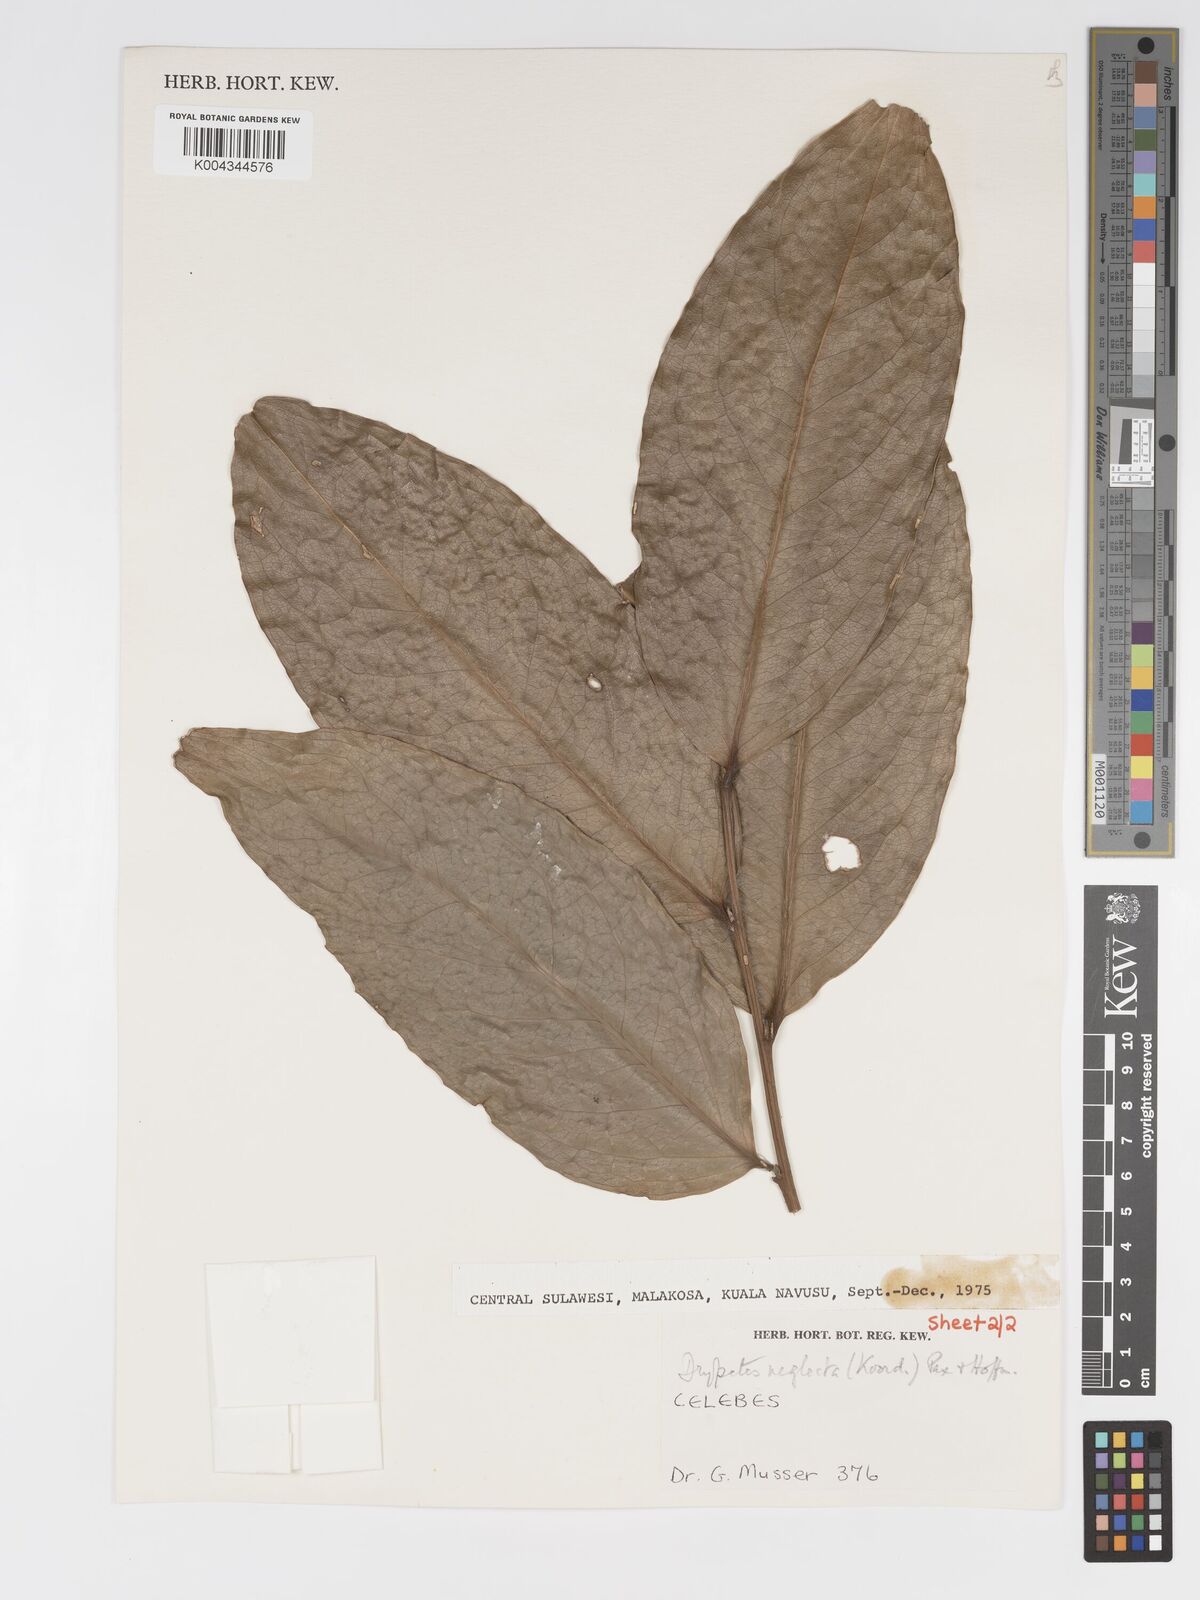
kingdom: Plantae
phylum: Tracheophyta
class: Magnoliopsida
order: Malpighiales
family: Putranjivaceae
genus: Drypetes
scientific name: Drypetes neglecta
